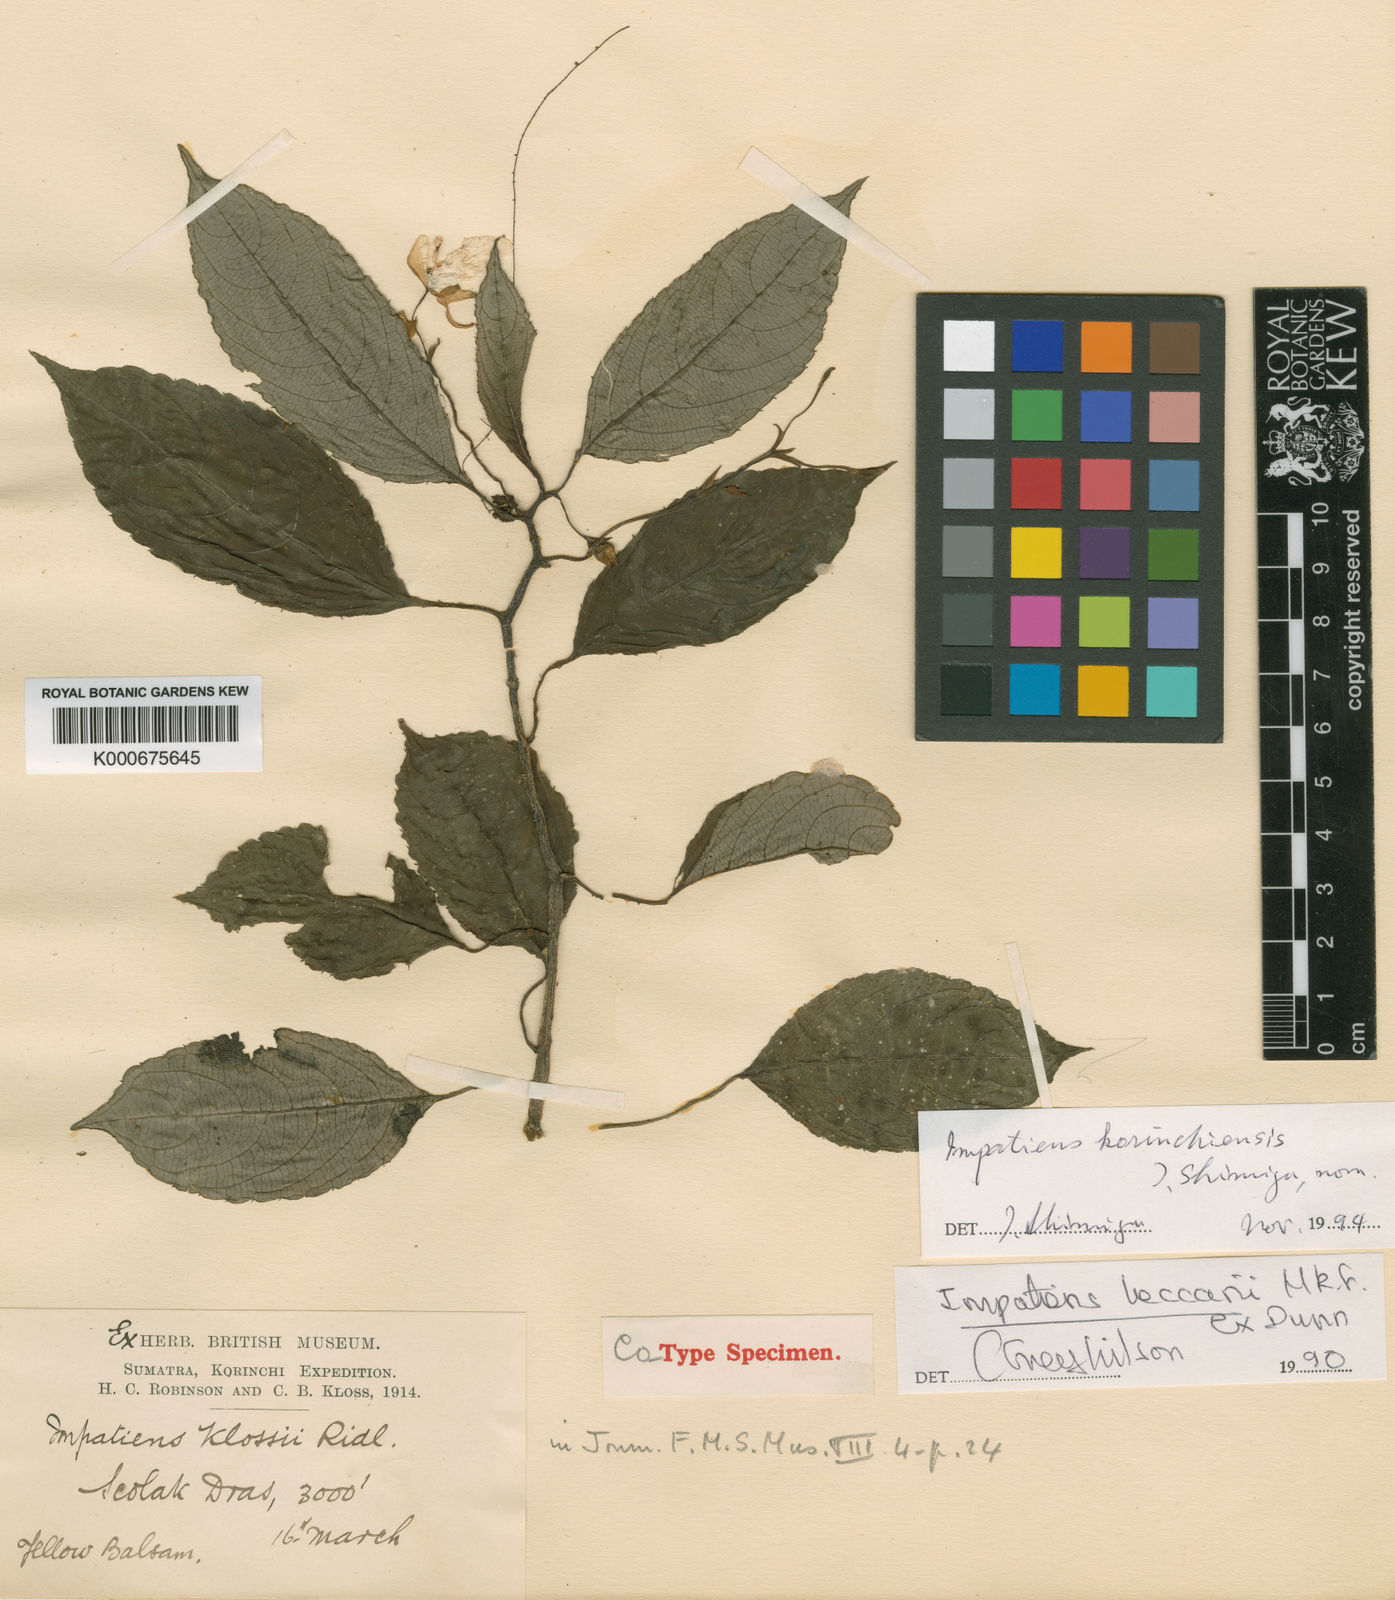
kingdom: Plantae
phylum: Tracheophyta
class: Magnoliopsida
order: Ericales
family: Balsaminaceae
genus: Impatiens
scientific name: Impatiens beccarii
